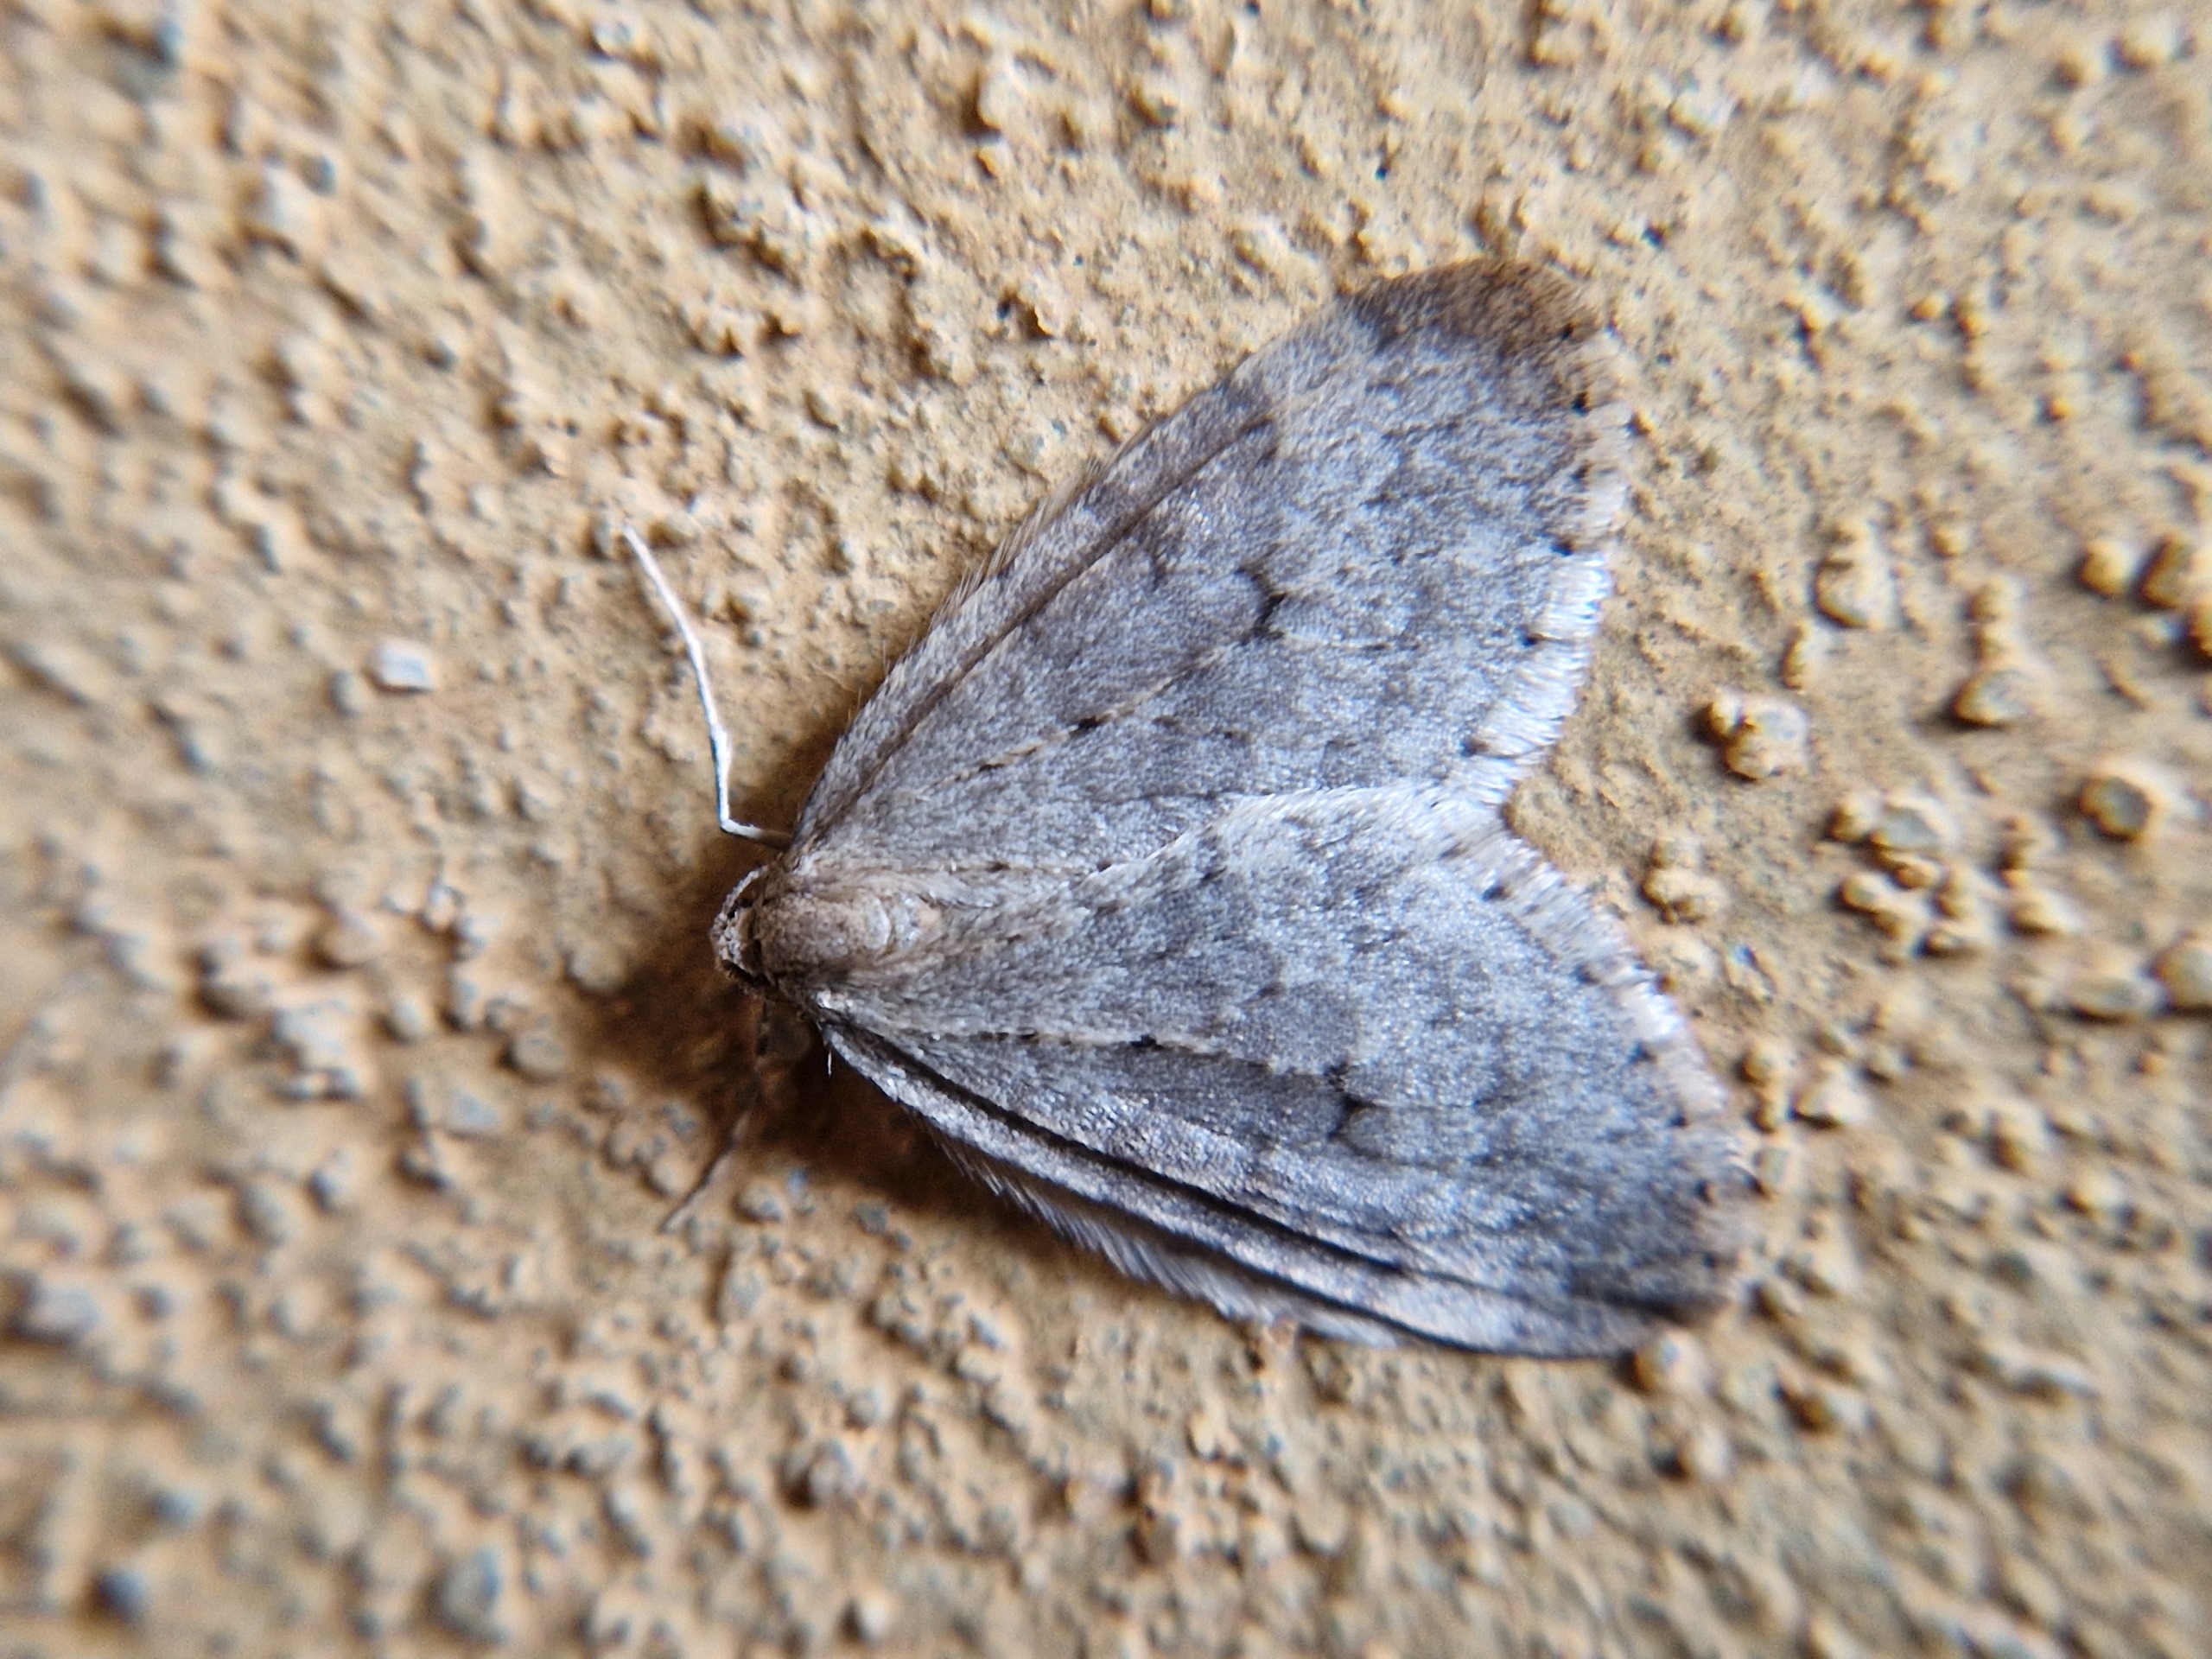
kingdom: Animalia
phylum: Arthropoda
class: Insecta
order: Lepidoptera
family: Geometridae
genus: Operophtera
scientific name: Operophtera brumata
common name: Lille frostmåler
